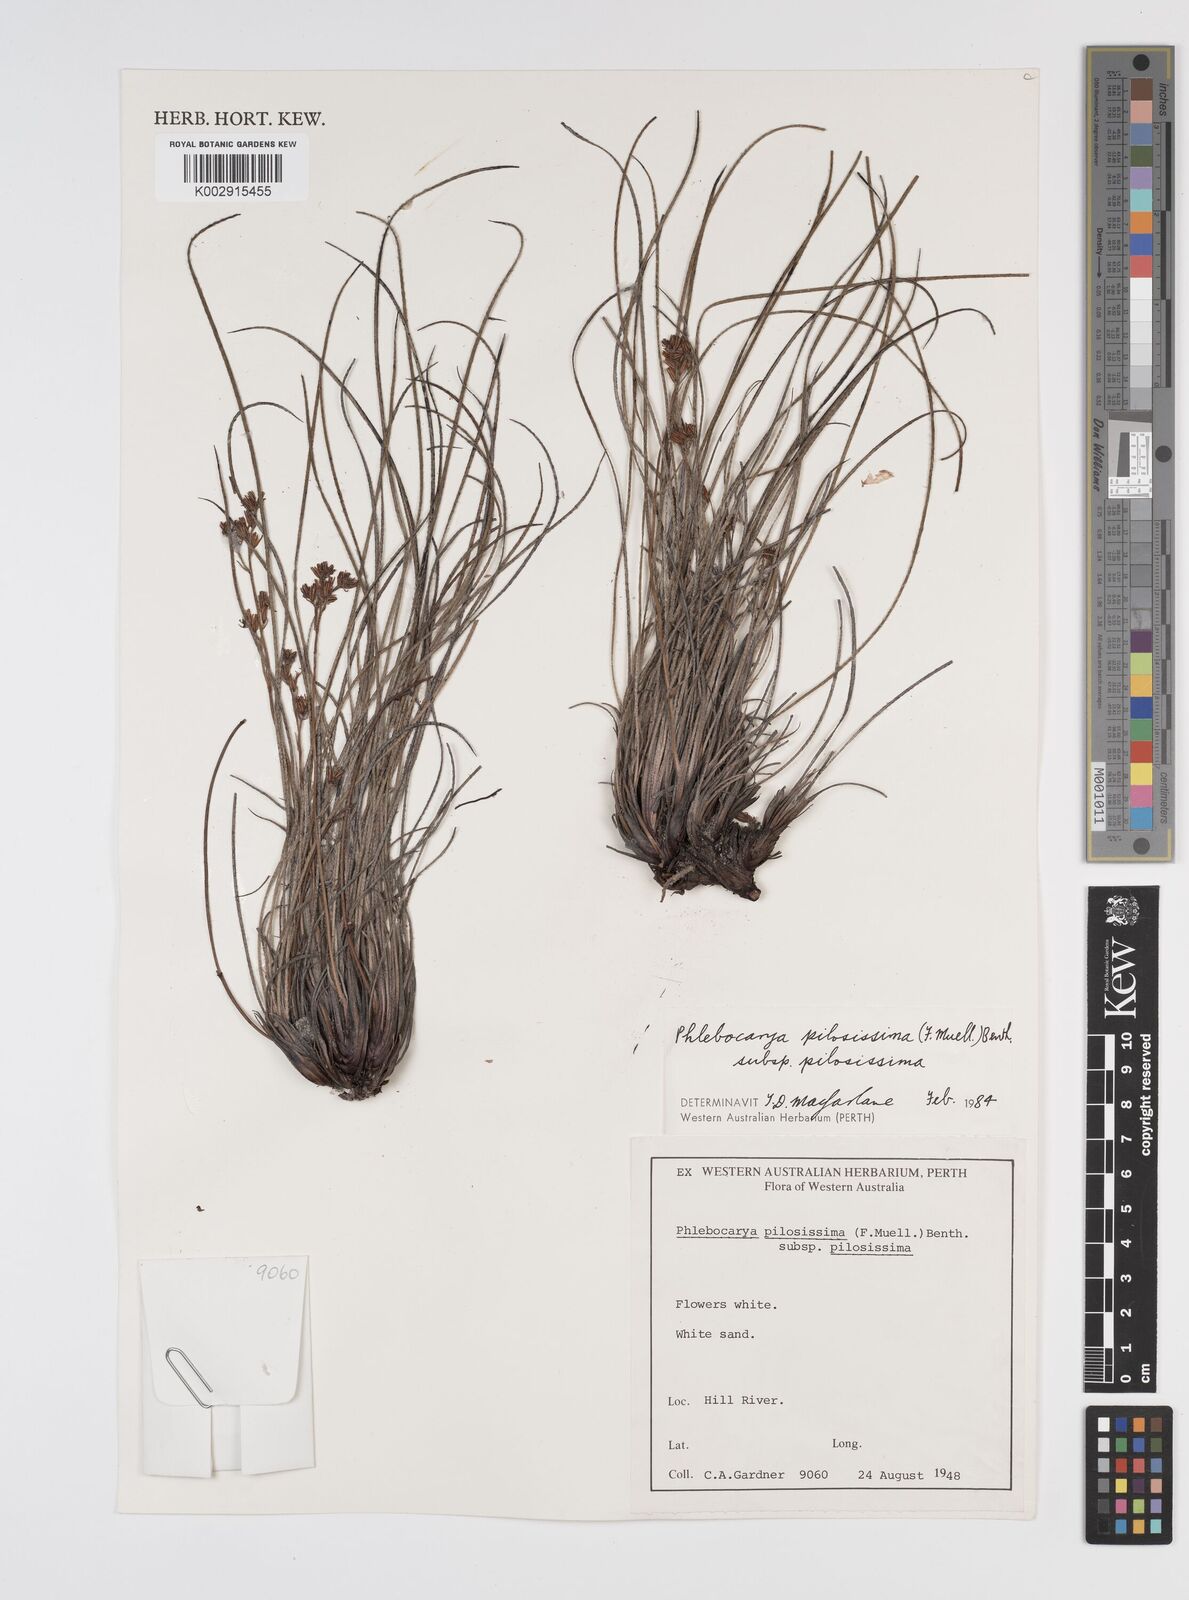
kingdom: Plantae
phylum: Tracheophyta
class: Liliopsida
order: Commelinales
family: Haemodoraceae
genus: Phlebocarya
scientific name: Phlebocarya pilosissima
